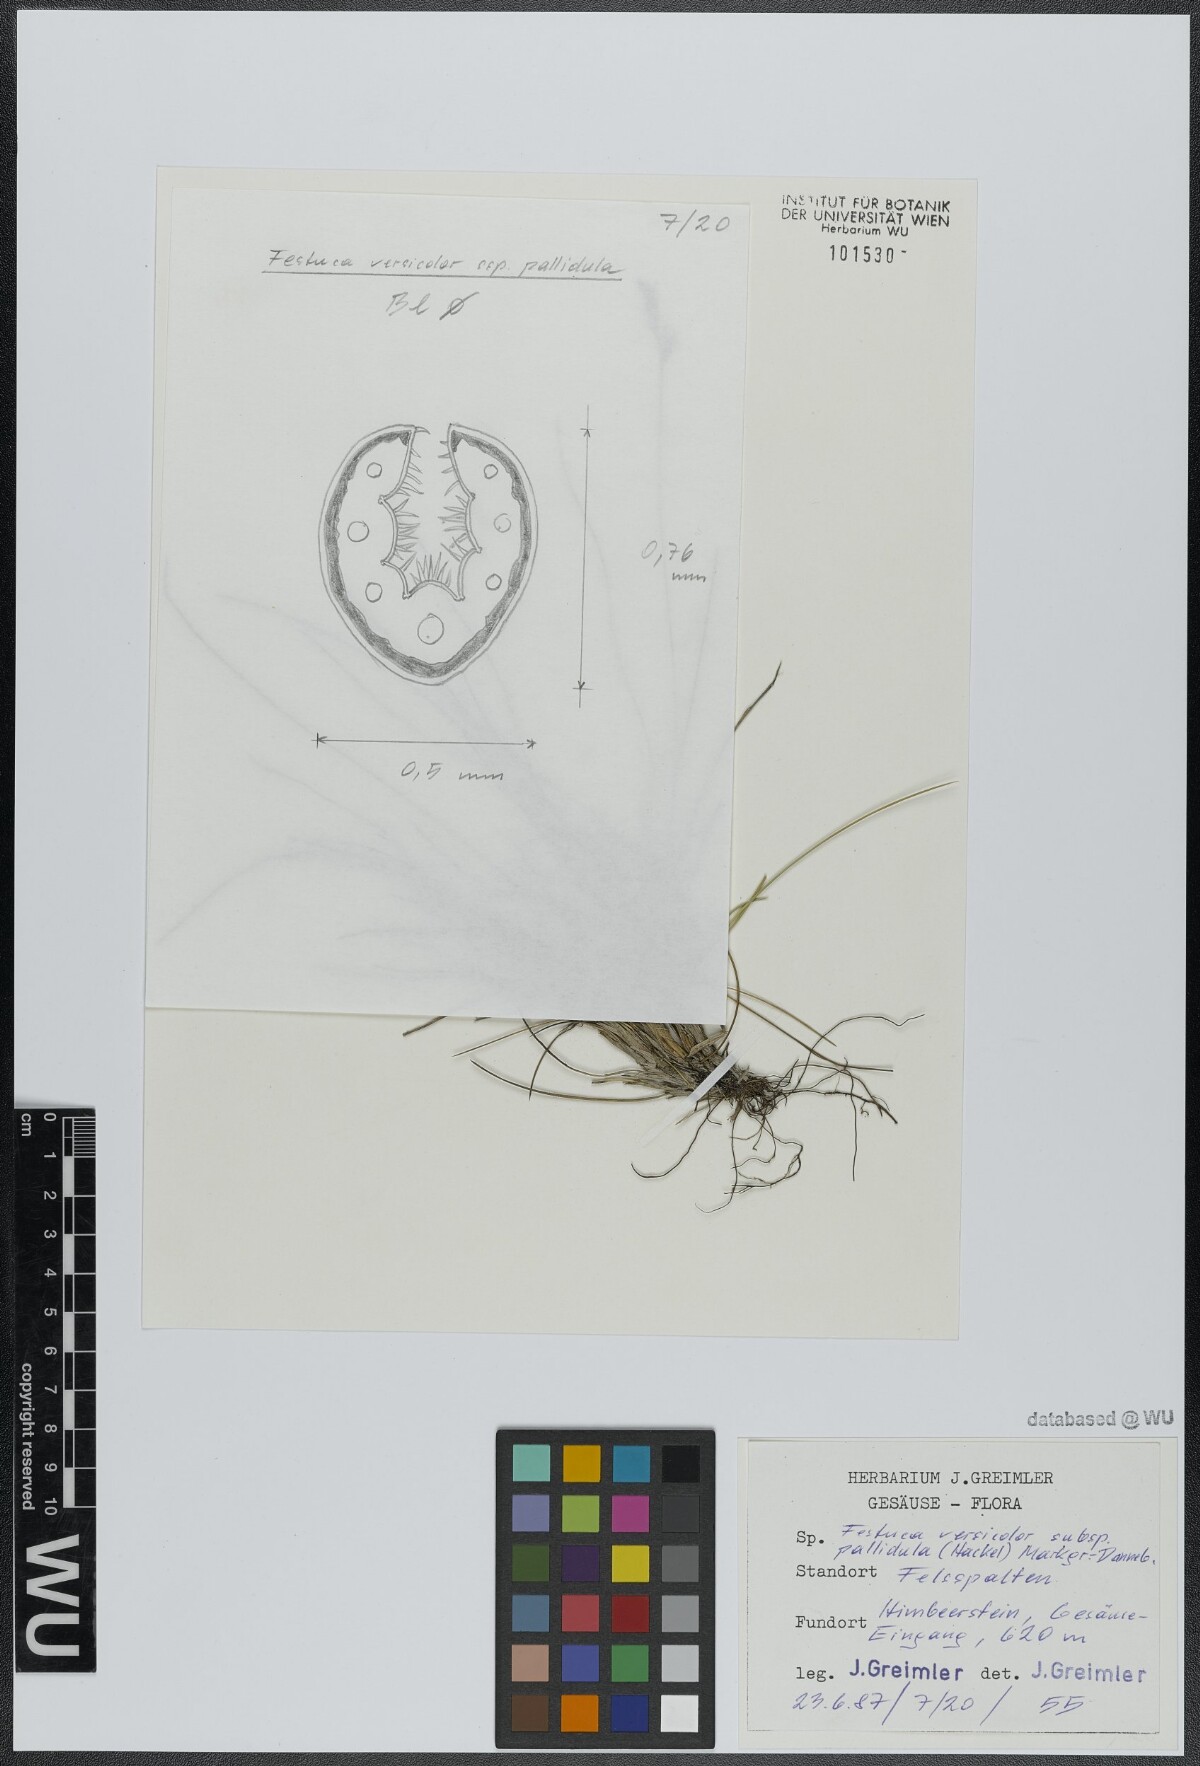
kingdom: Plantae
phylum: Tracheophyta
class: Liliopsida
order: Poales
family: Poaceae
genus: Festuca
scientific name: Festuca varia
